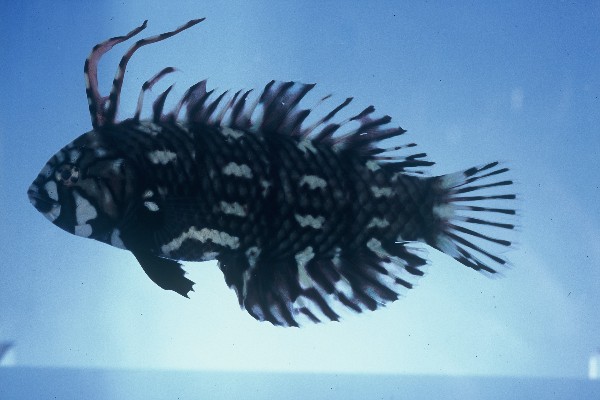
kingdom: Animalia
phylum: Chordata
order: Perciformes
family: Labridae
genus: Novaculichthys
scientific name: Novaculichthys taeniourus
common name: Rockmover wrasse
